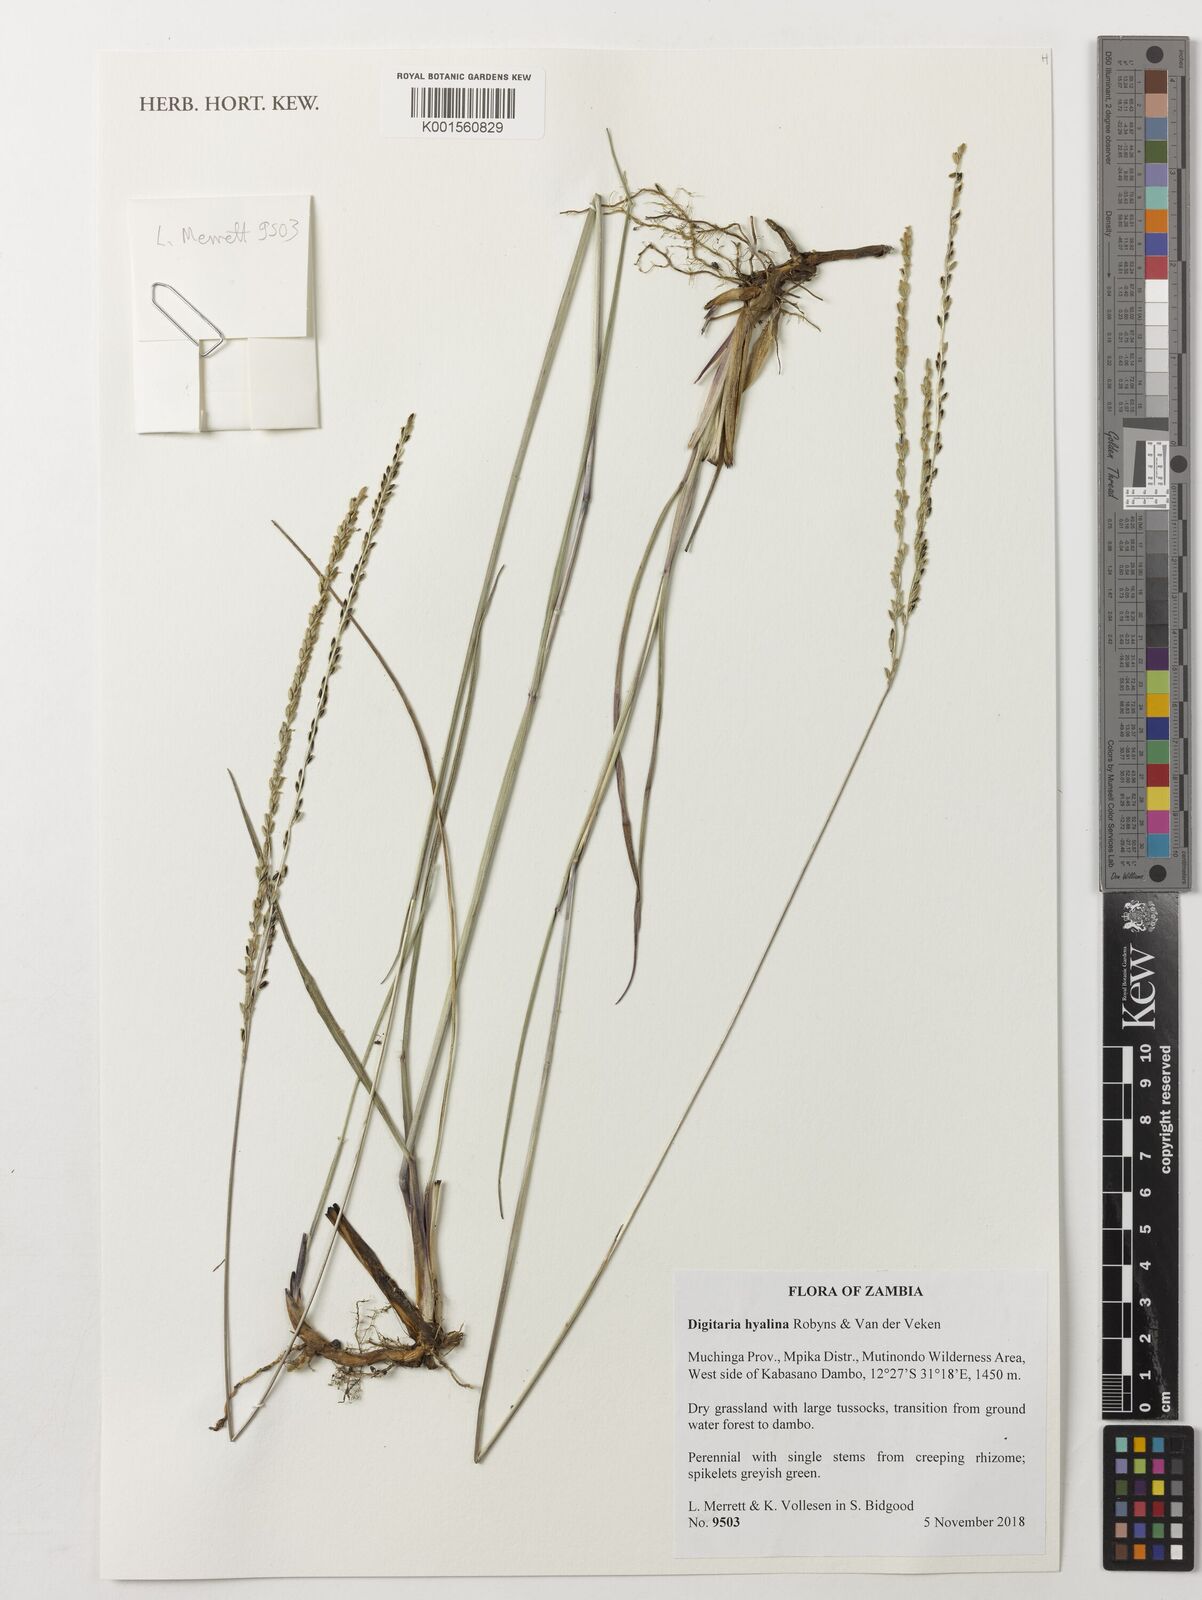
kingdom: Plantae
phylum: Tracheophyta
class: Liliopsida
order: Poales
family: Poaceae
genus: Digitaria
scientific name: Digitaria hyalina
